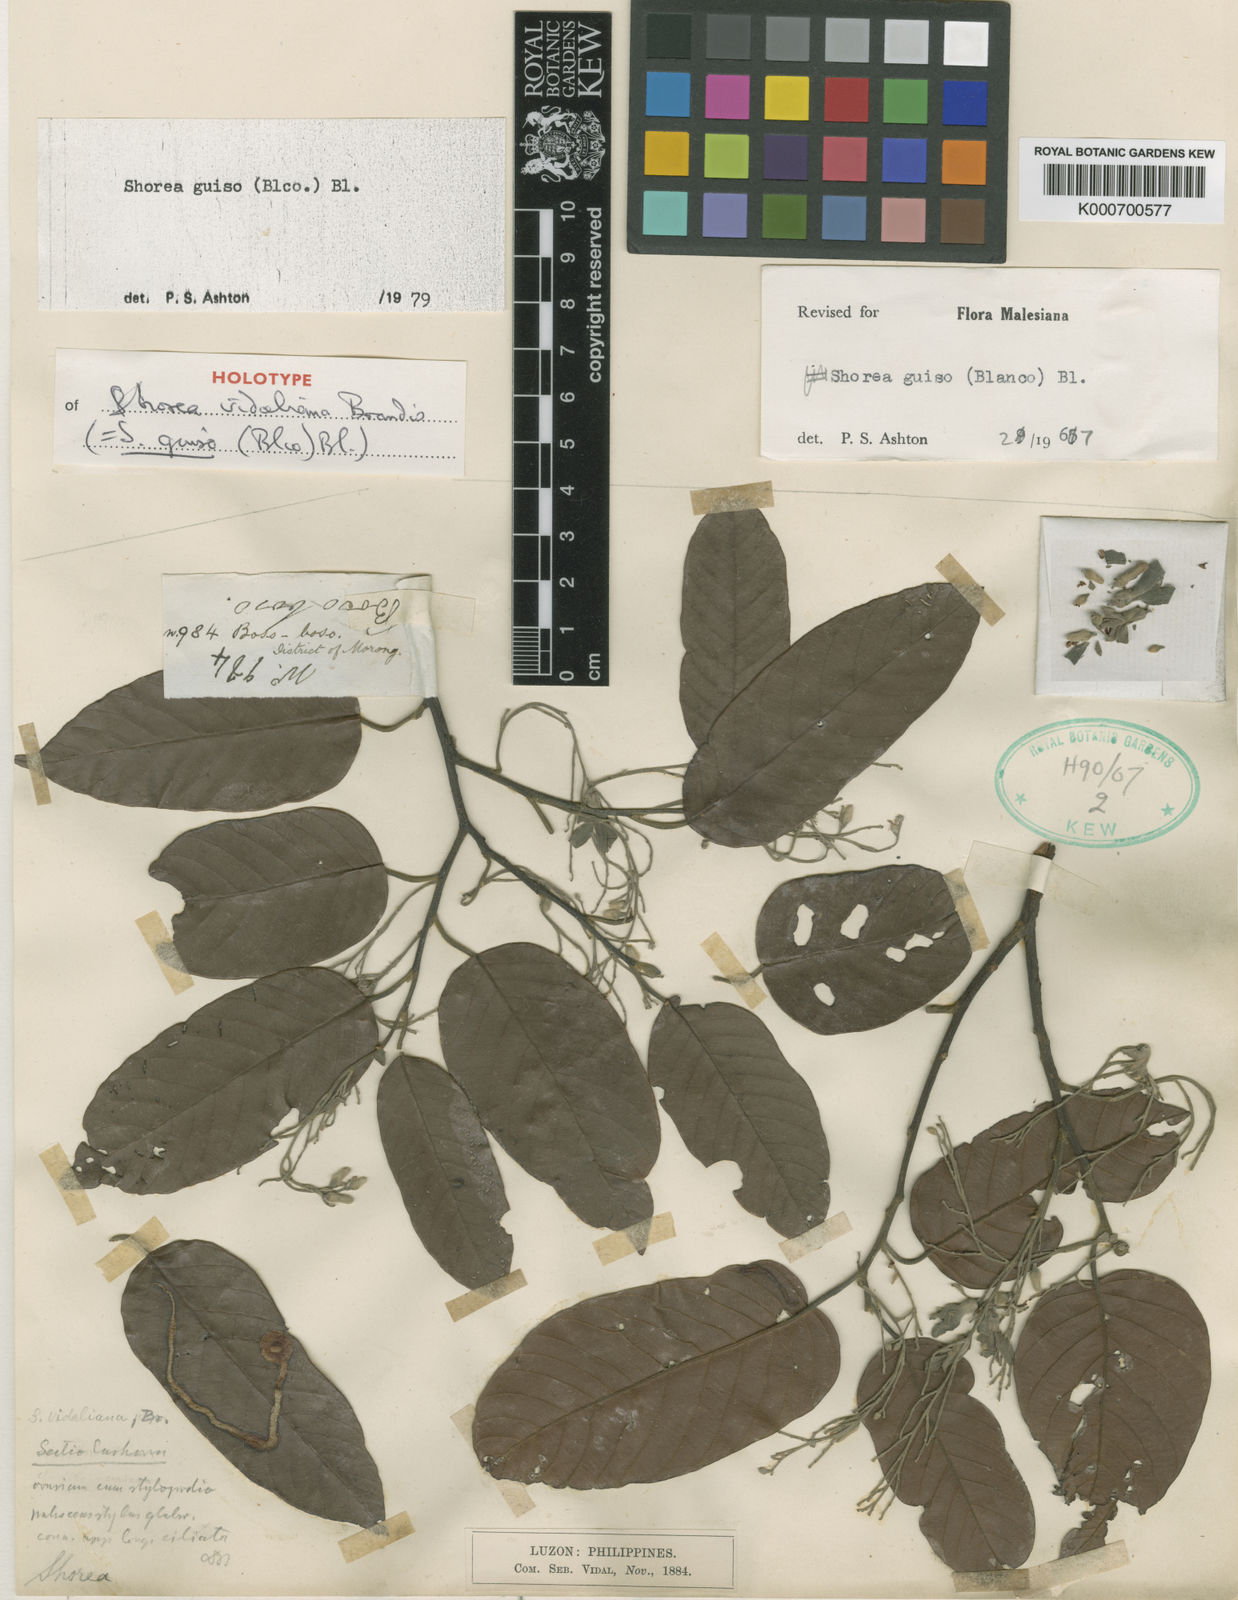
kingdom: Plantae
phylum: Tracheophyta
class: Magnoliopsida
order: Malvales
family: Dipterocarpaceae
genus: Shorea
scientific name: Shorea guiso
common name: Red balau
